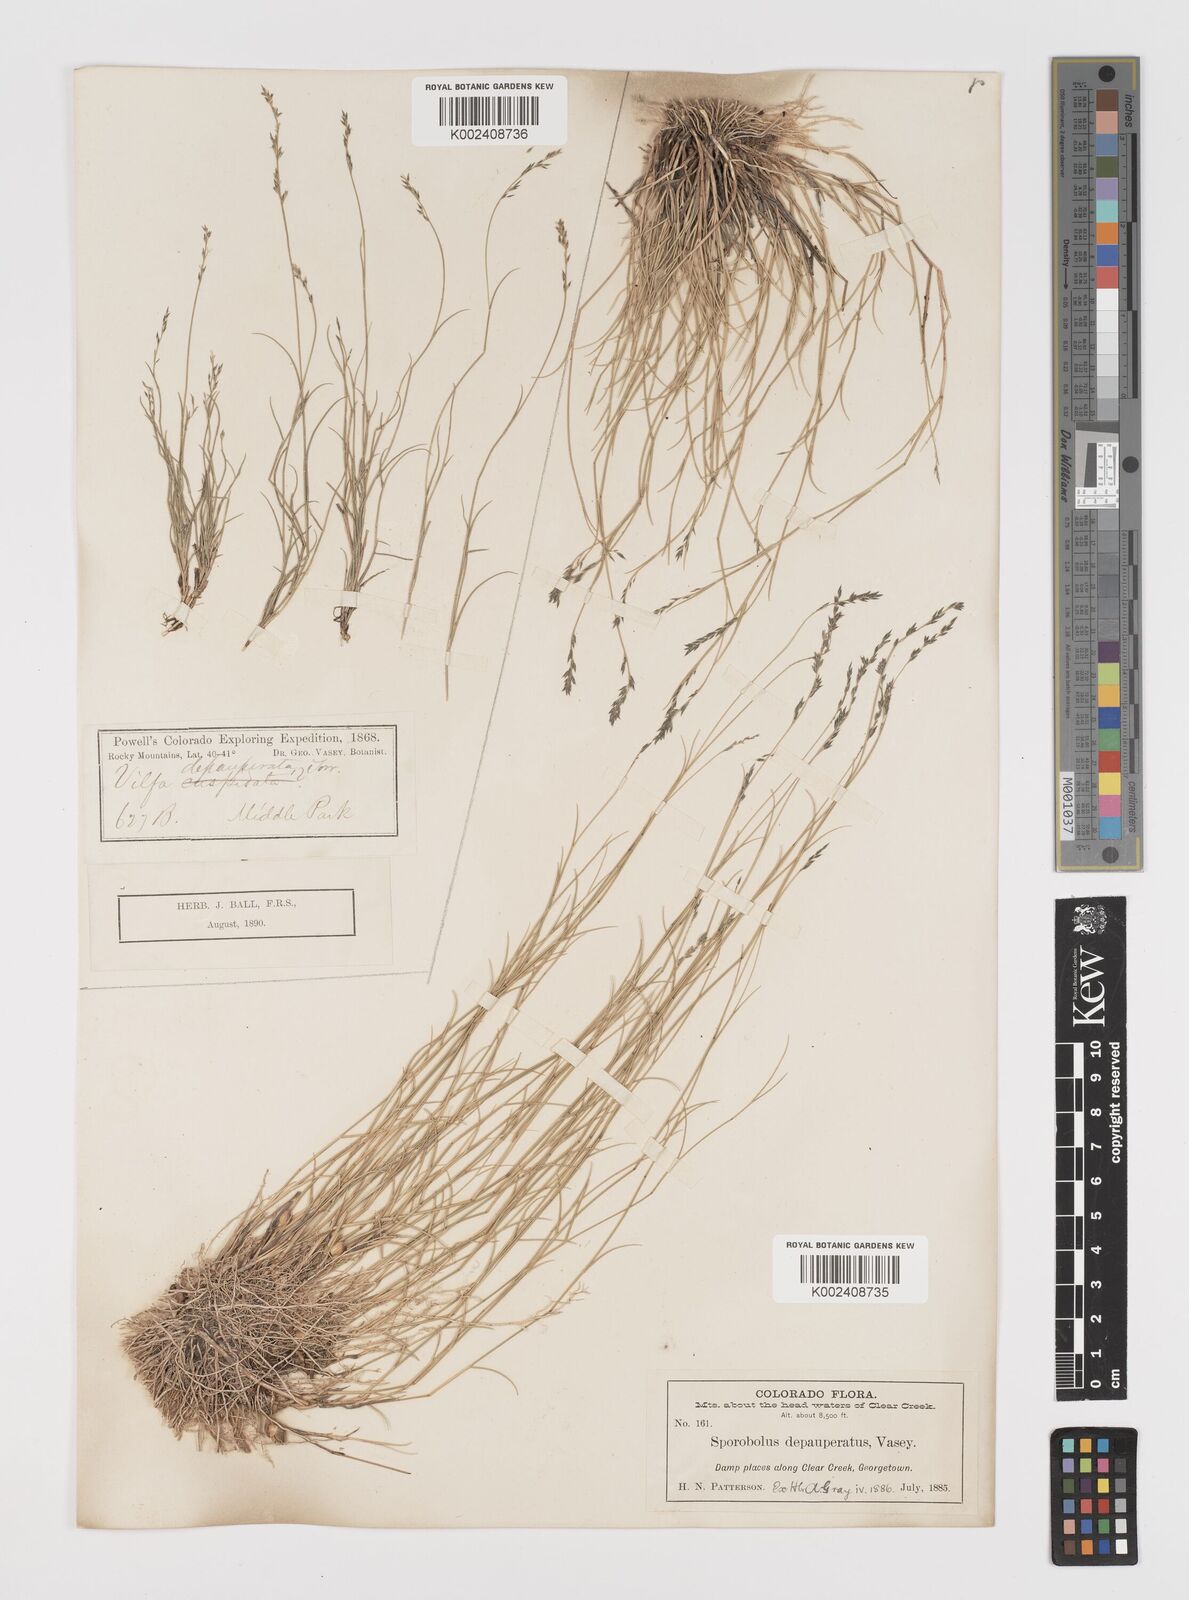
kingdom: Plantae
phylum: Tracheophyta
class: Liliopsida
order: Poales
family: Poaceae
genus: Muhlenbergia
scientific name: Muhlenbergia richardsonis
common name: Mat muhly
